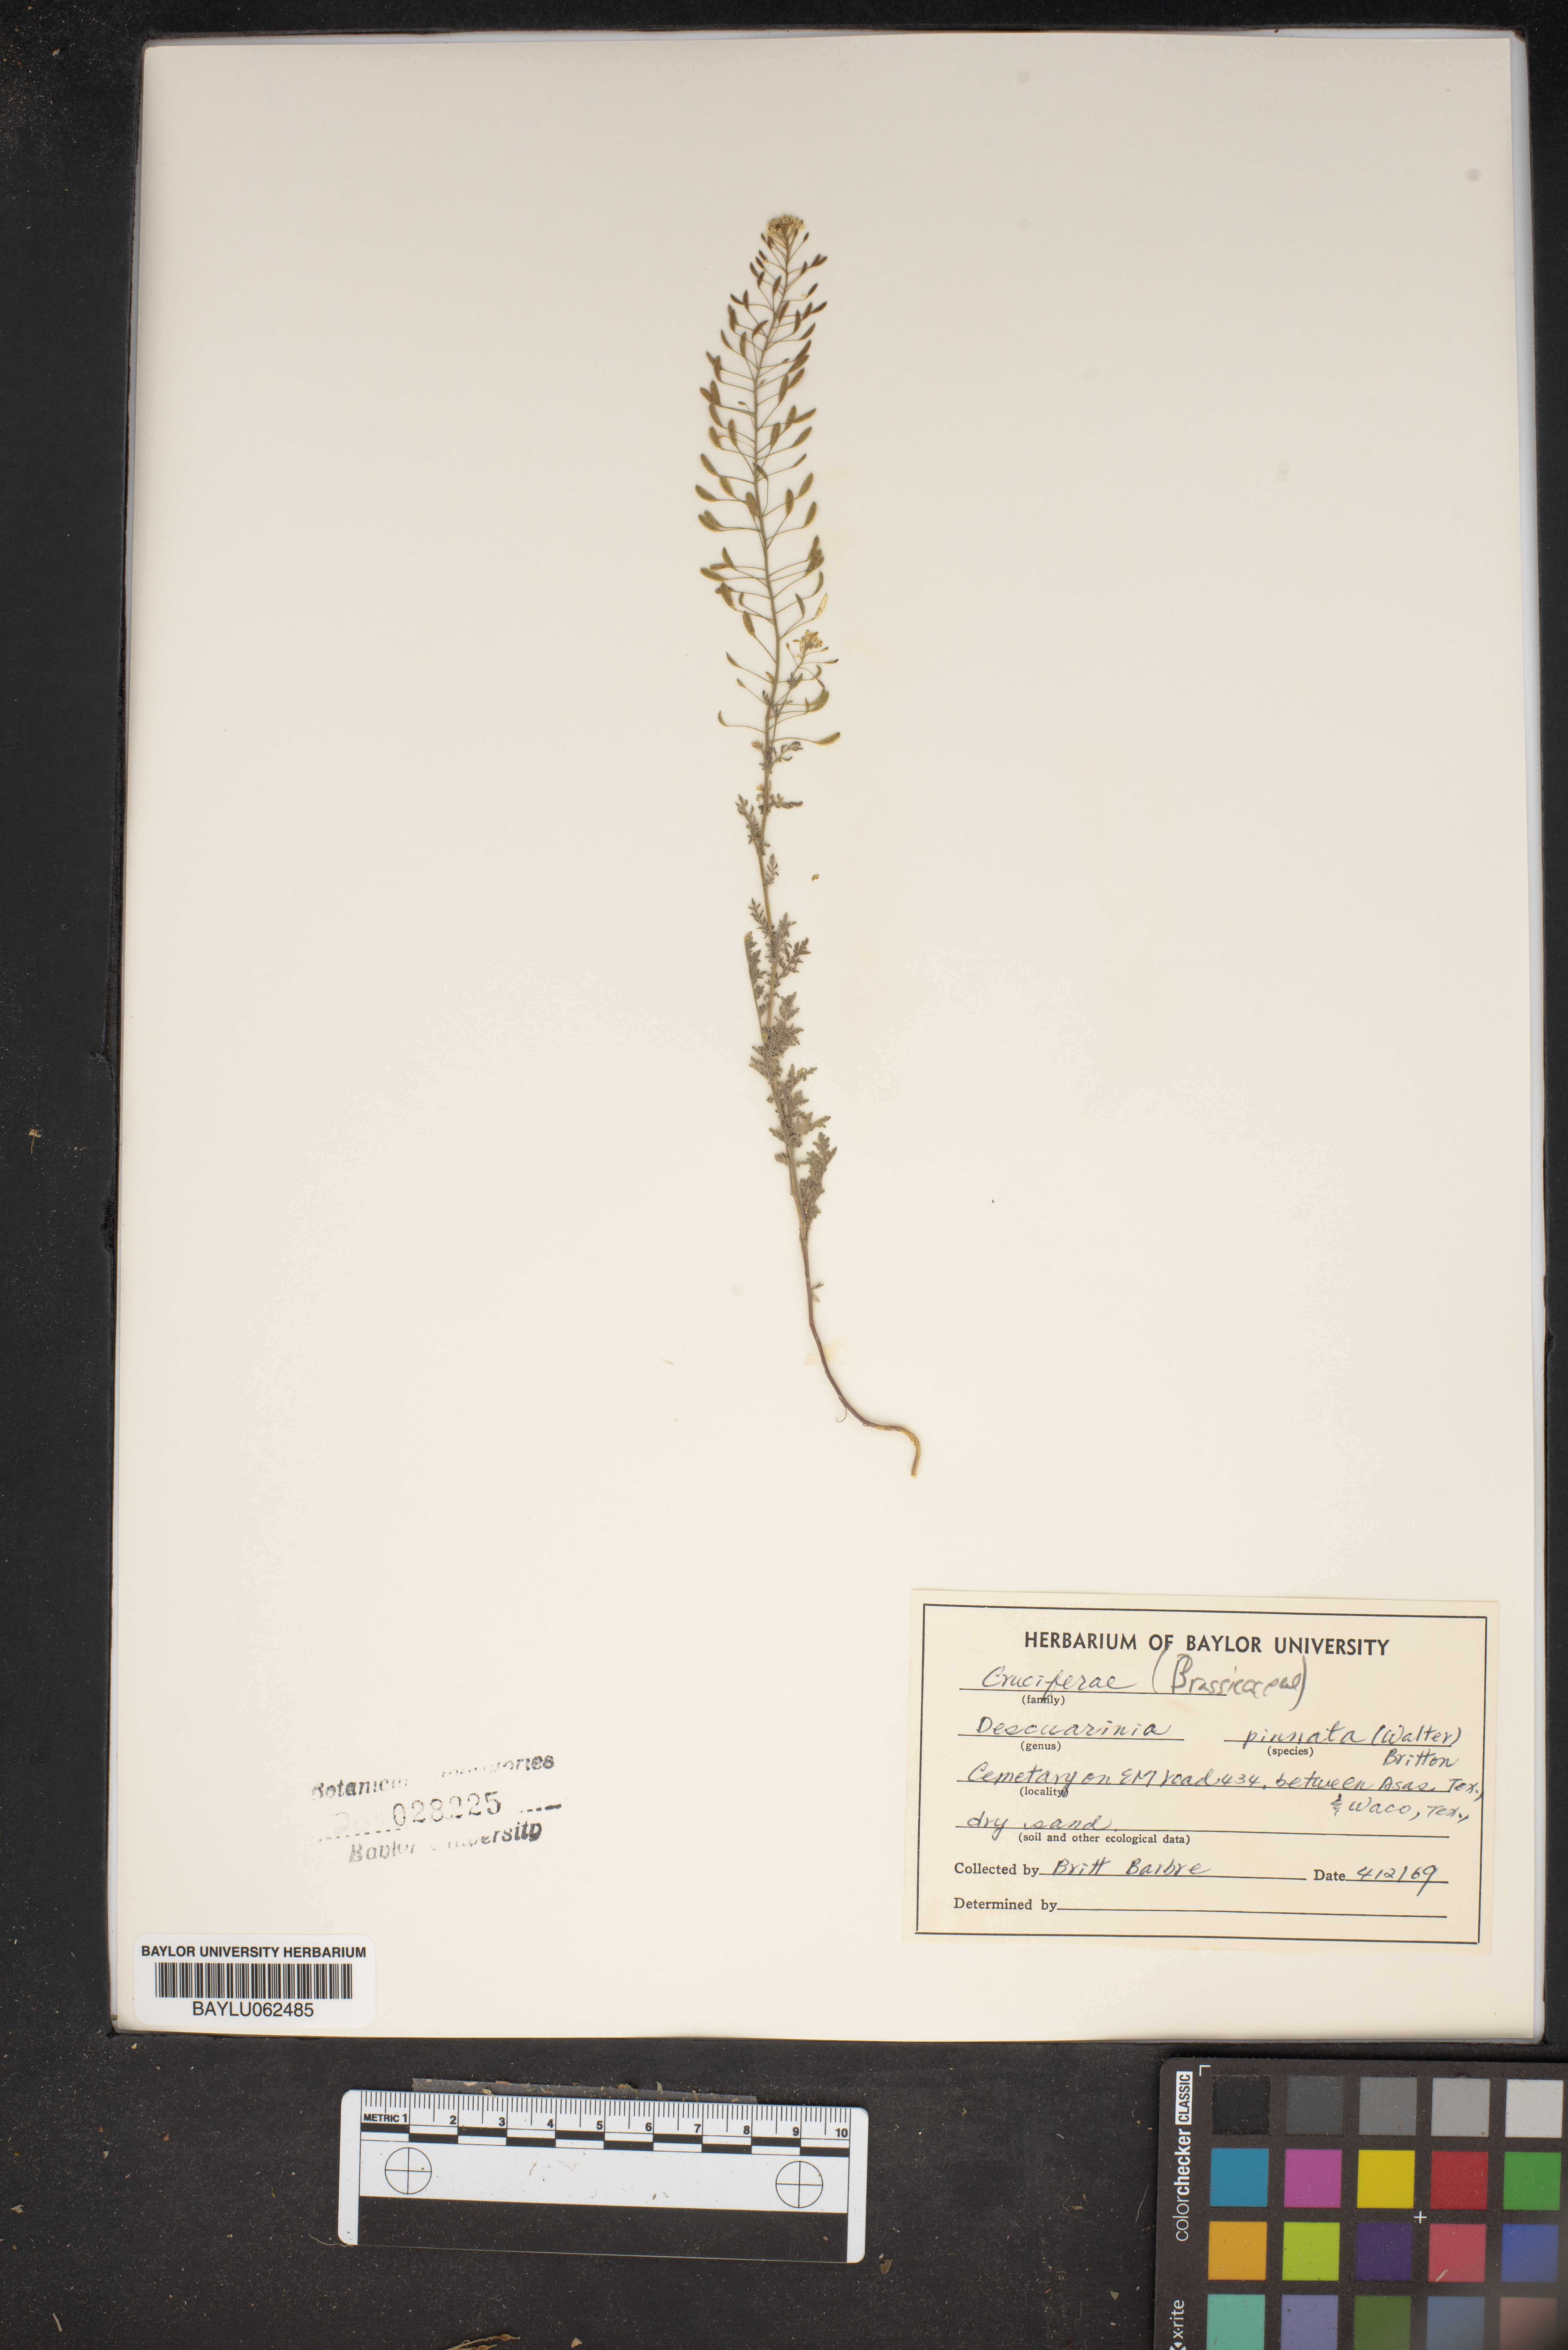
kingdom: Plantae
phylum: Tracheophyta
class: Magnoliopsida
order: Brassicales
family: Brassicaceae
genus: Descurainia
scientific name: Descurainia pinnata
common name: Western tansy mustard
